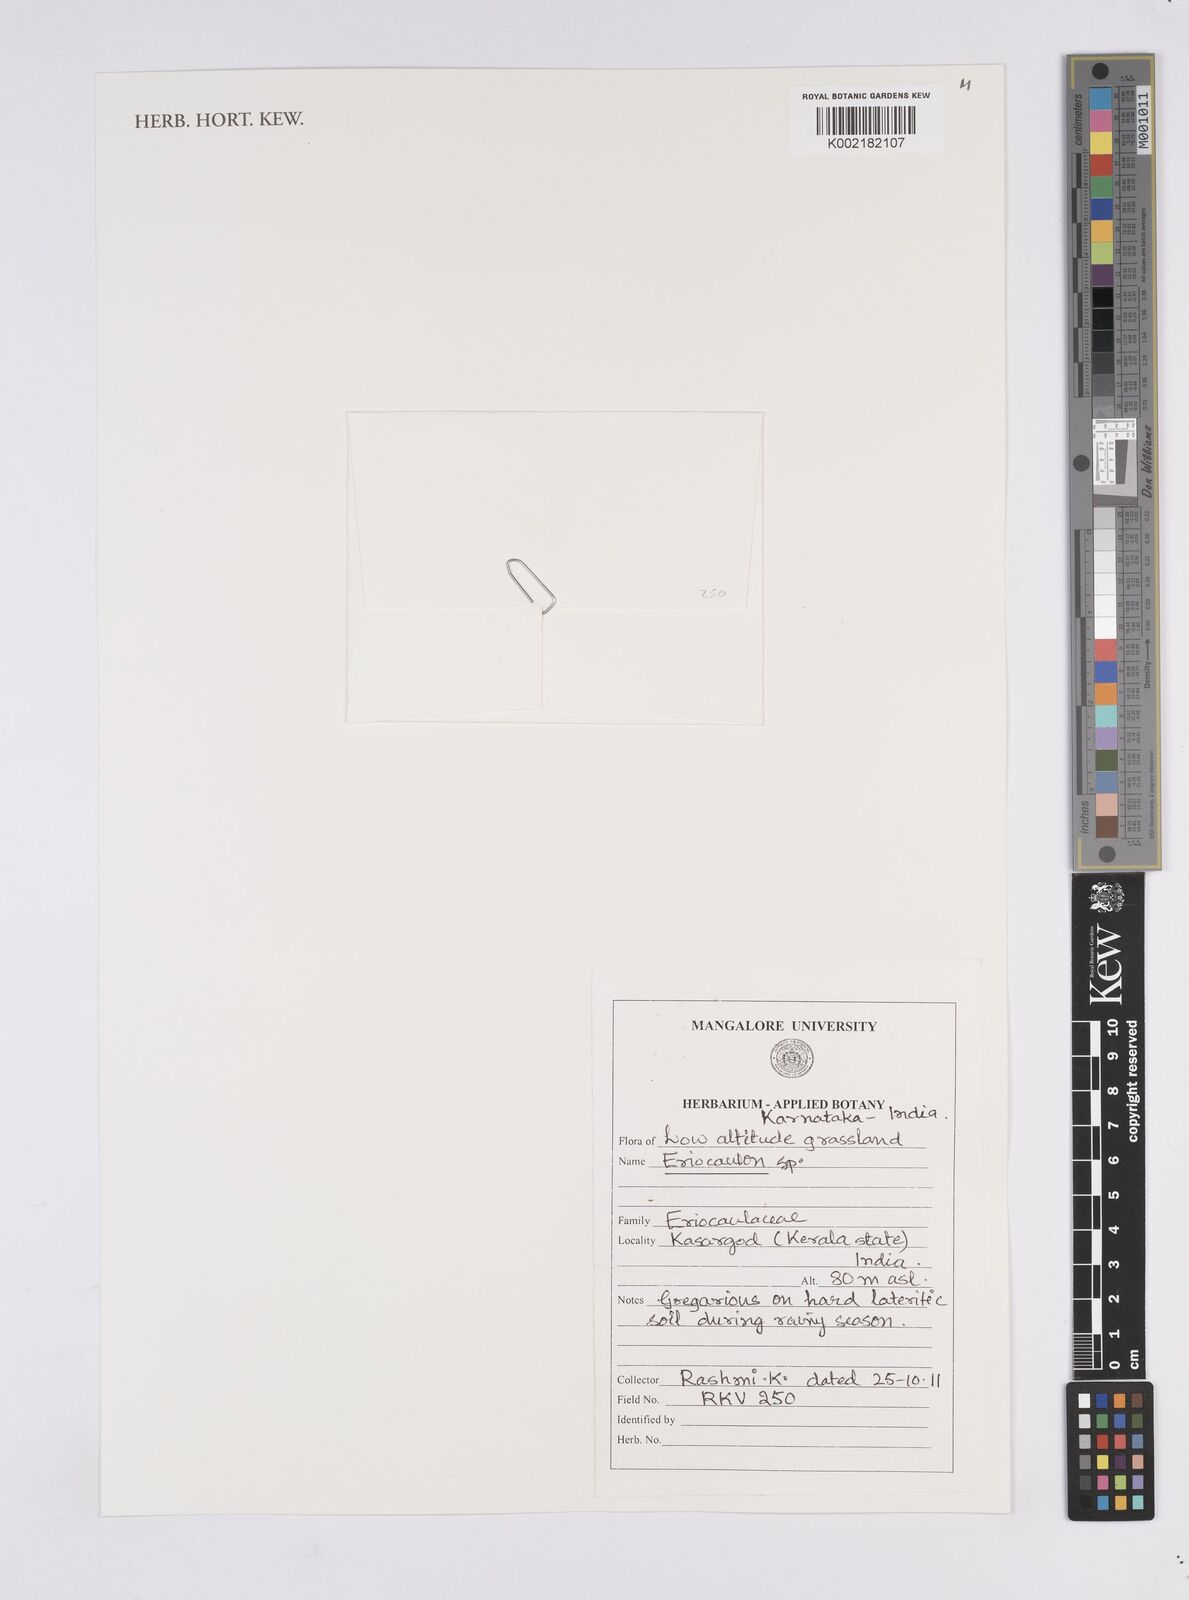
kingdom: Plantae
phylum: Tracheophyta
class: Liliopsida
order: Poales
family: Eriocaulaceae
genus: Eriocaulon
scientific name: Eriocaulon
